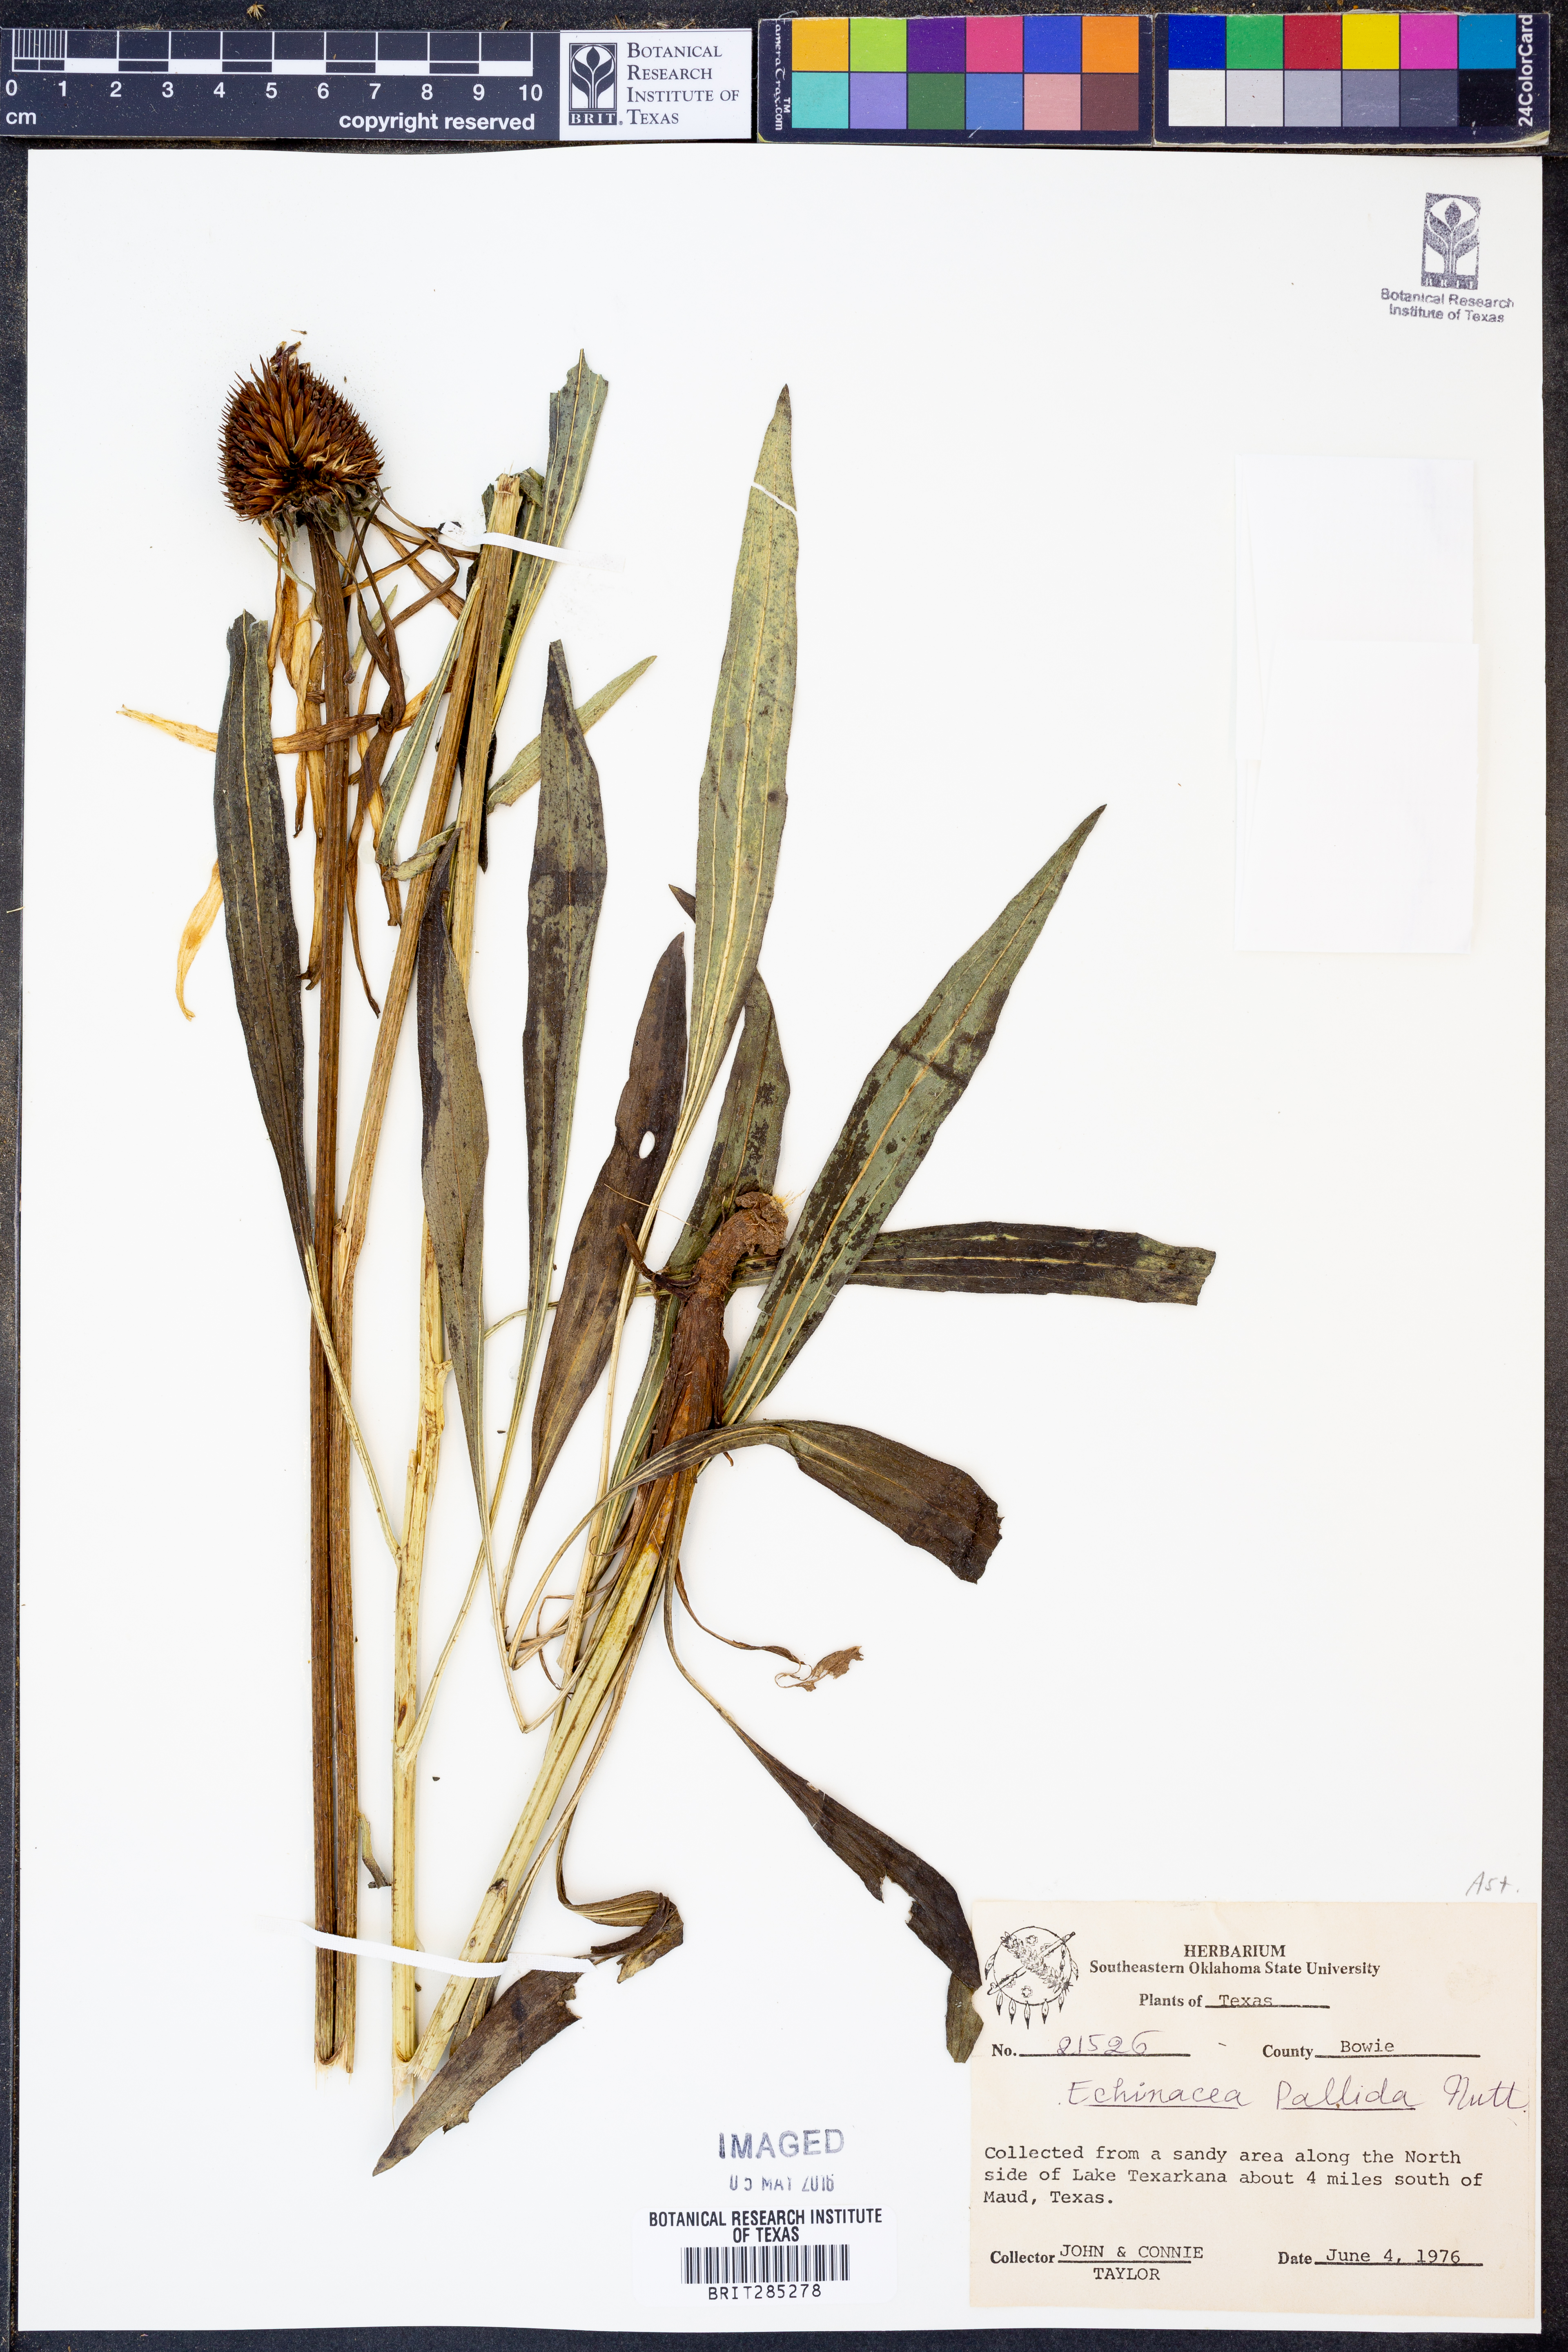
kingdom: Plantae
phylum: Tracheophyta
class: Magnoliopsida
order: Asterales
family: Asteraceae
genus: Echinacea
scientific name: Echinacea pallida
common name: Pale echinacea
